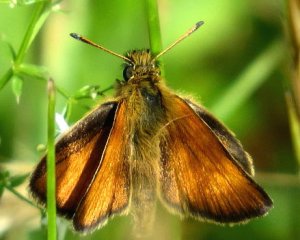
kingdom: Animalia
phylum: Arthropoda
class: Insecta
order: Lepidoptera
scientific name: Lepidoptera
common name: Butterflies
